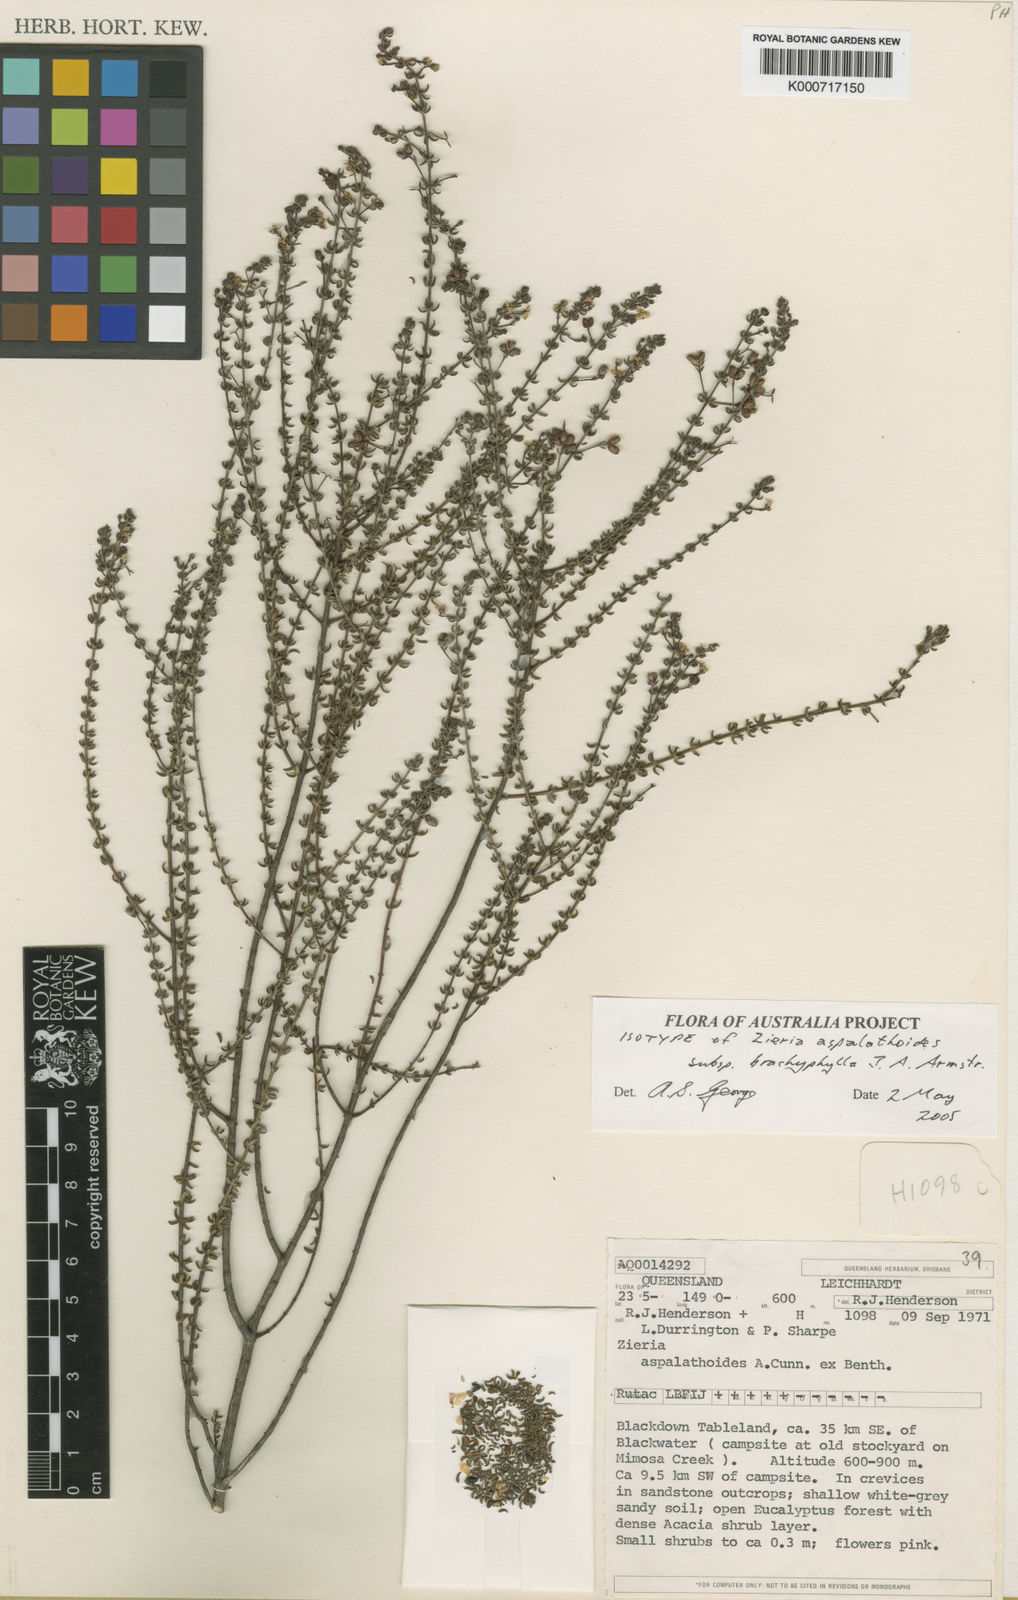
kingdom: Plantae
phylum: Tracheophyta
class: Magnoliopsida
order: Sapindales
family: Rutaceae
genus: Zieria
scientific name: Zieria
